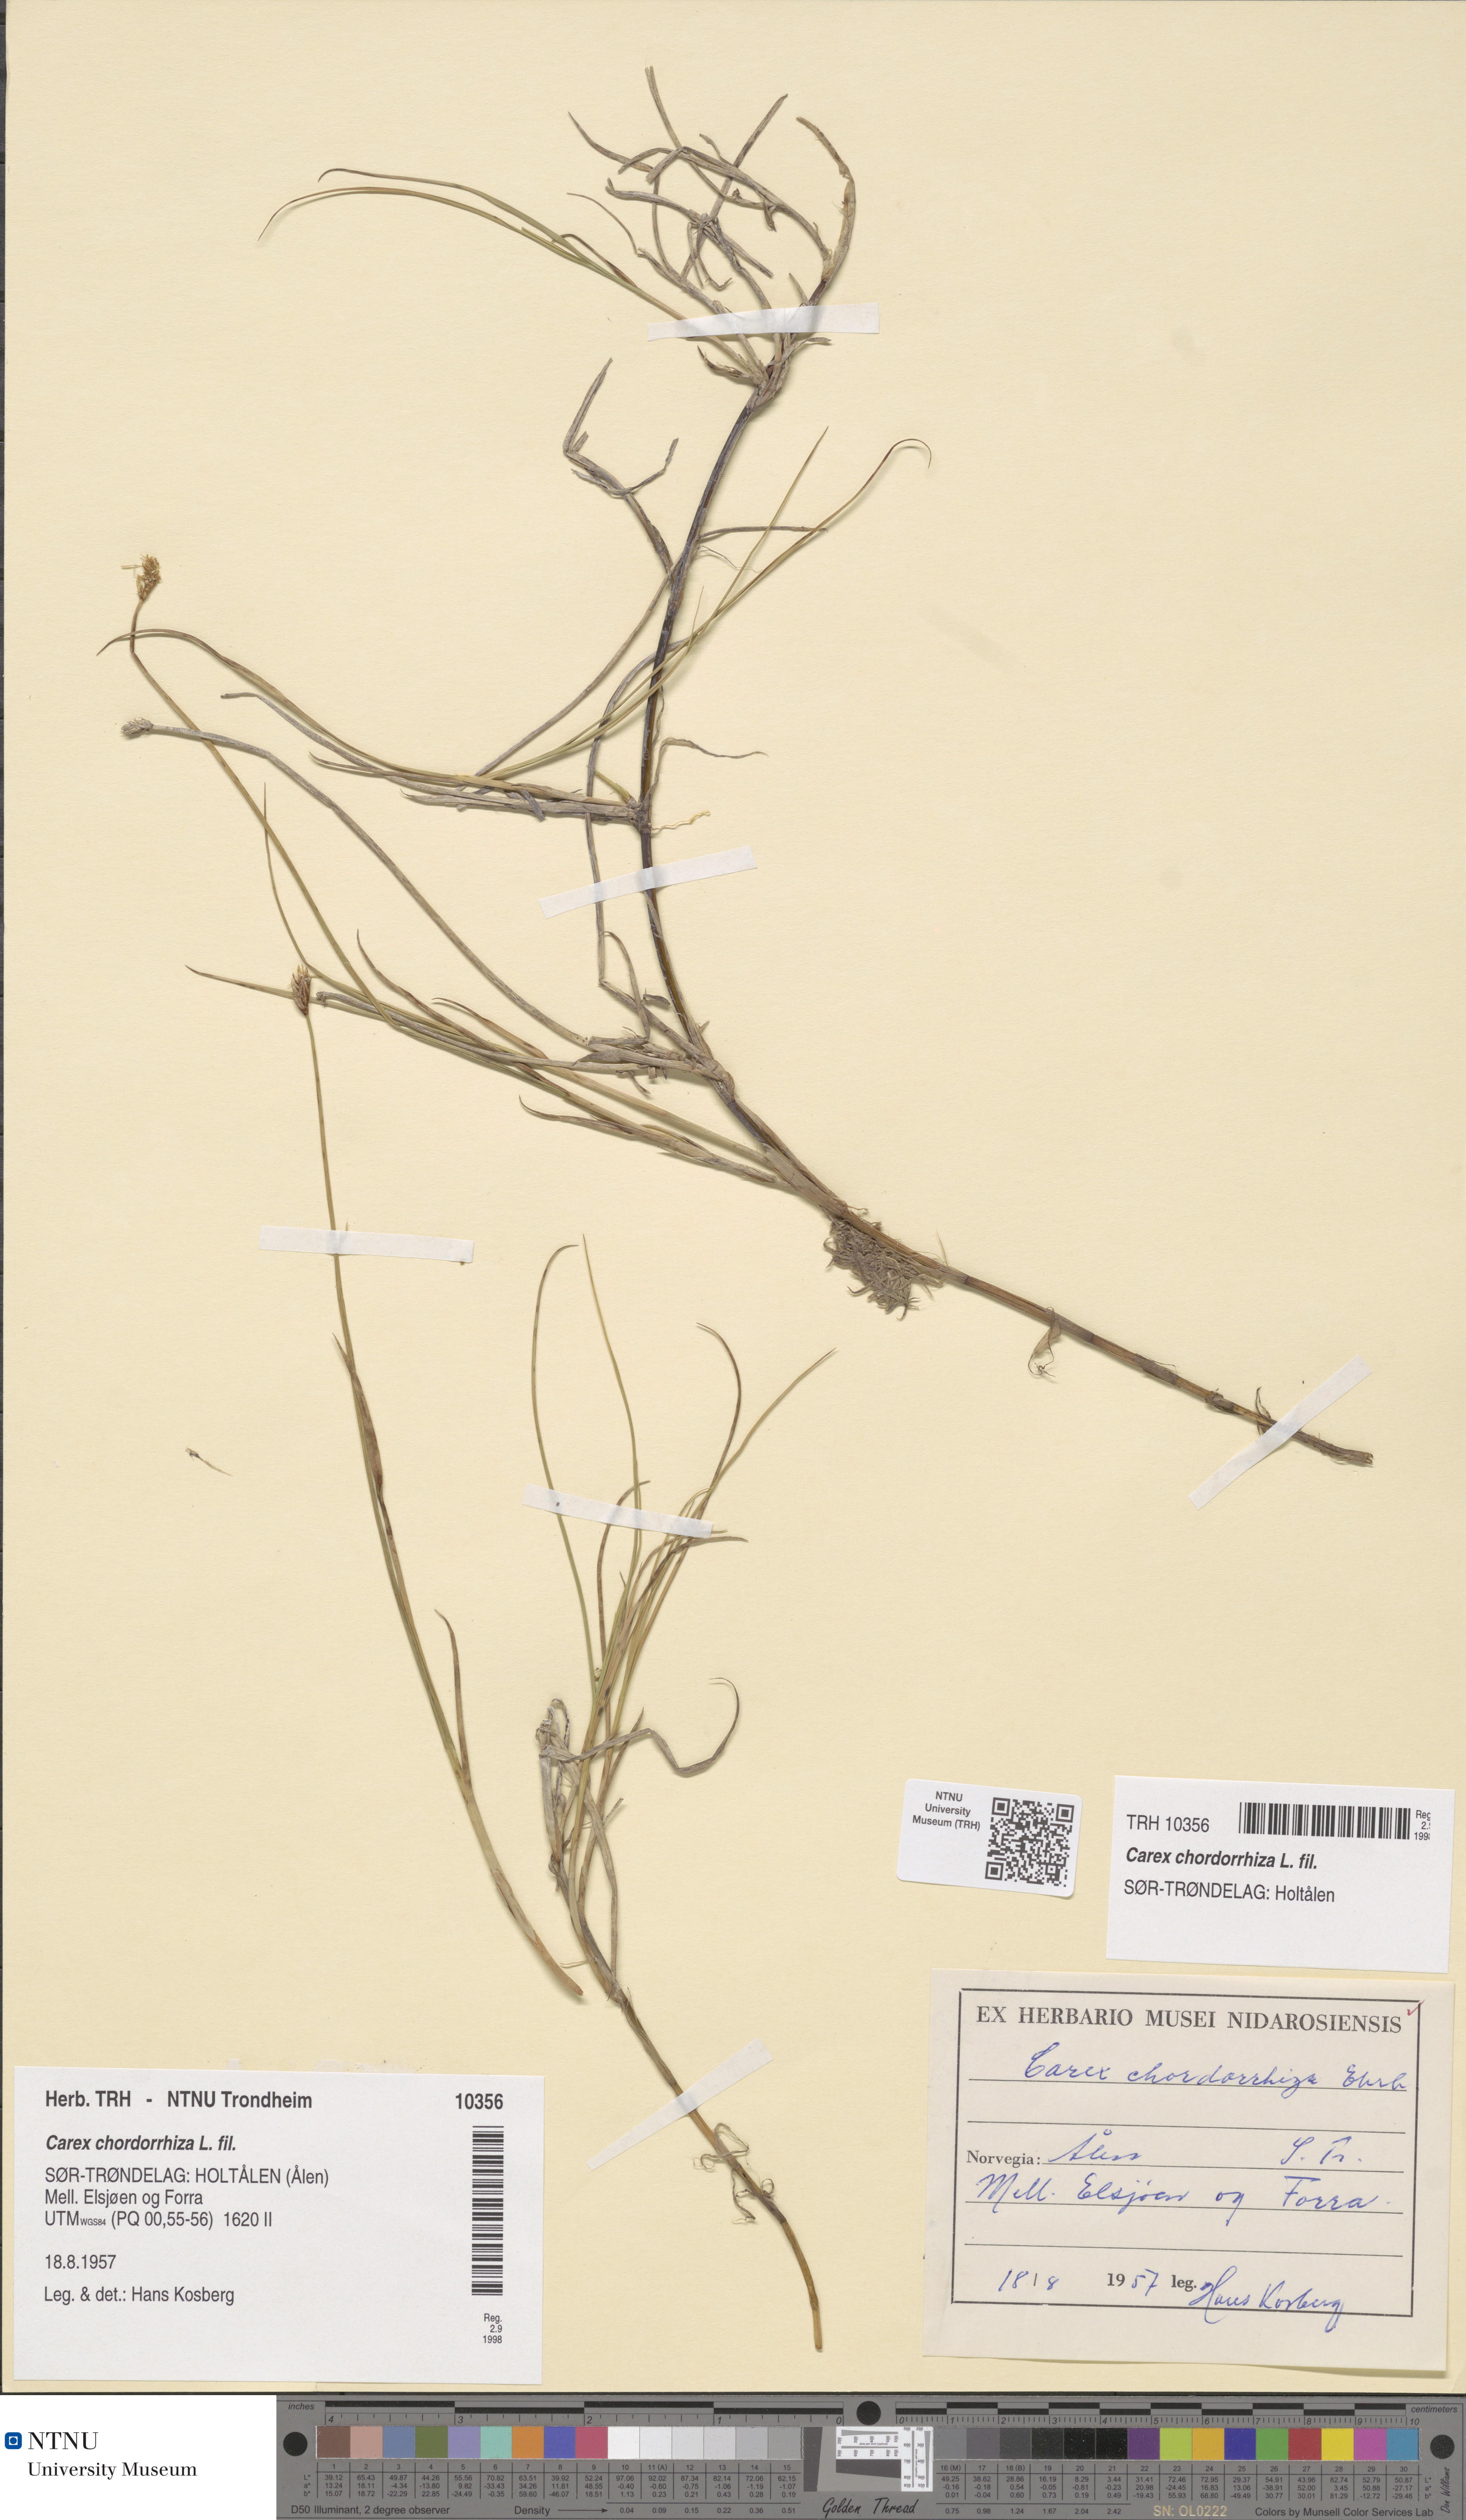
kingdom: Plantae
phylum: Tracheophyta
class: Liliopsida
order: Poales
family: Cyperaceae
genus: Carex
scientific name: Carex chordorrhiza
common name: String sedge
